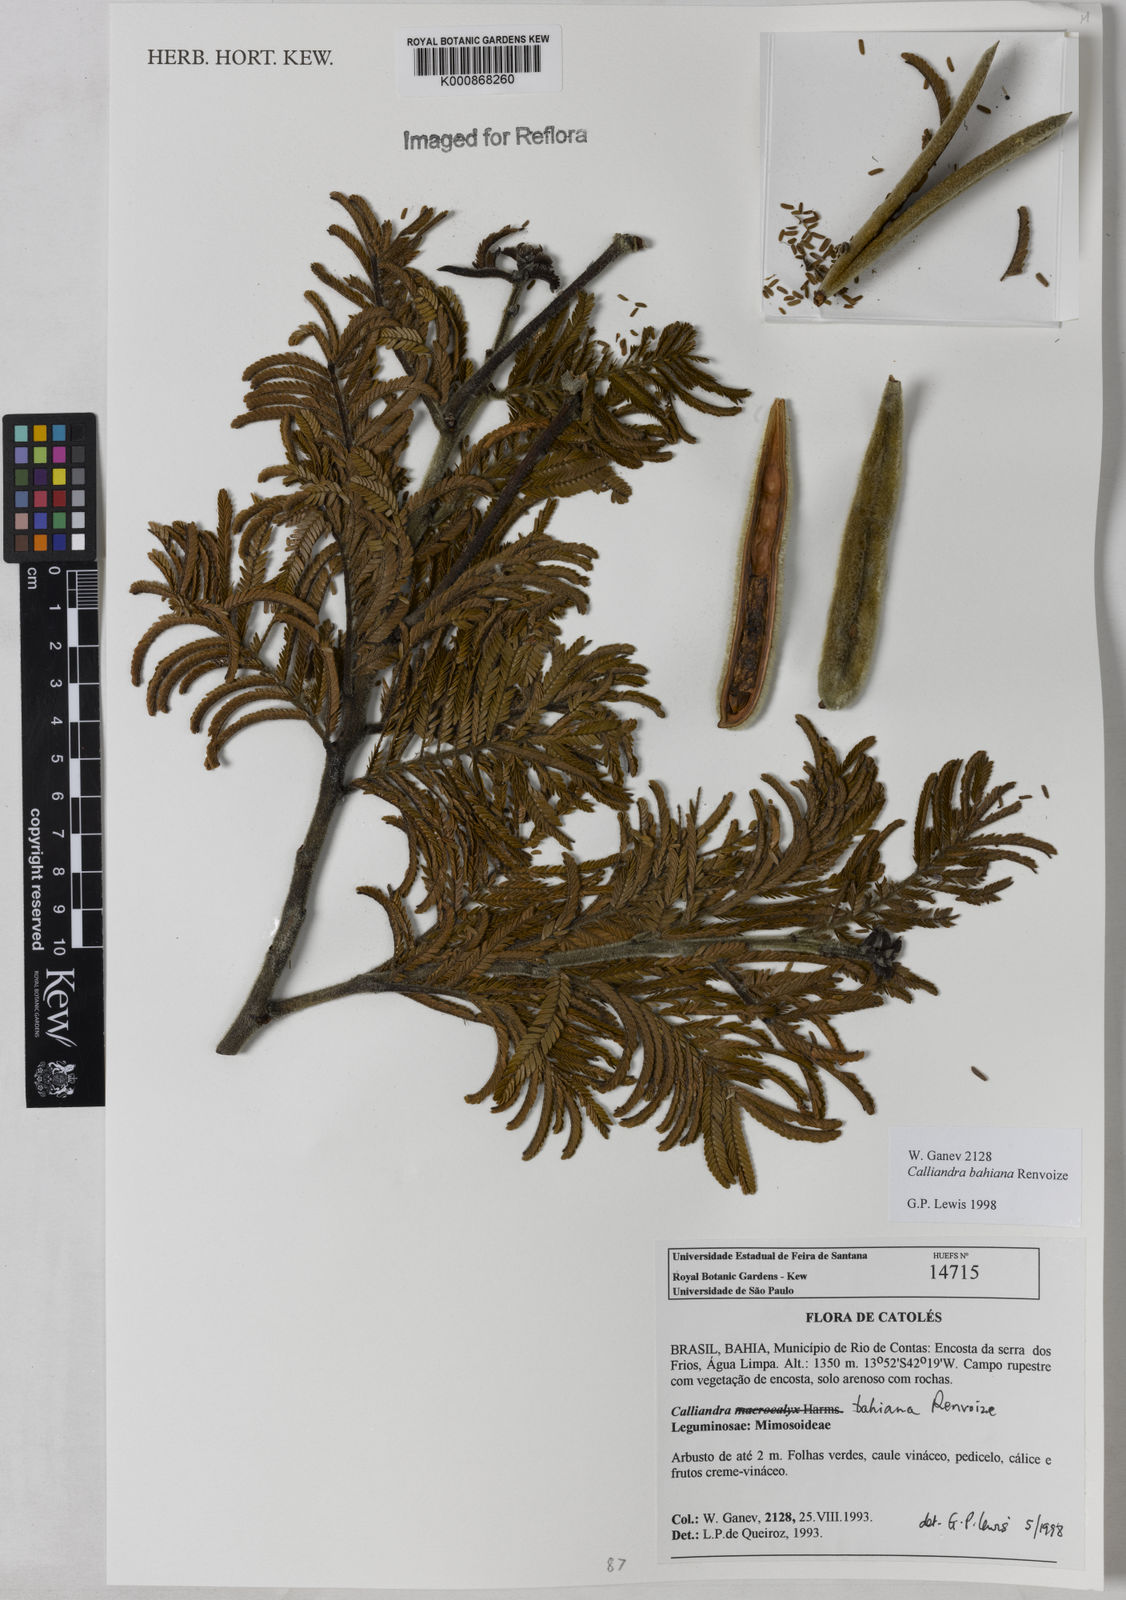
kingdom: Plantae
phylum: Tracheophyta
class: Magnoliopsida
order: Fabales
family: Fabaceae
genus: Calliandra
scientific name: Calliandra bahiana
